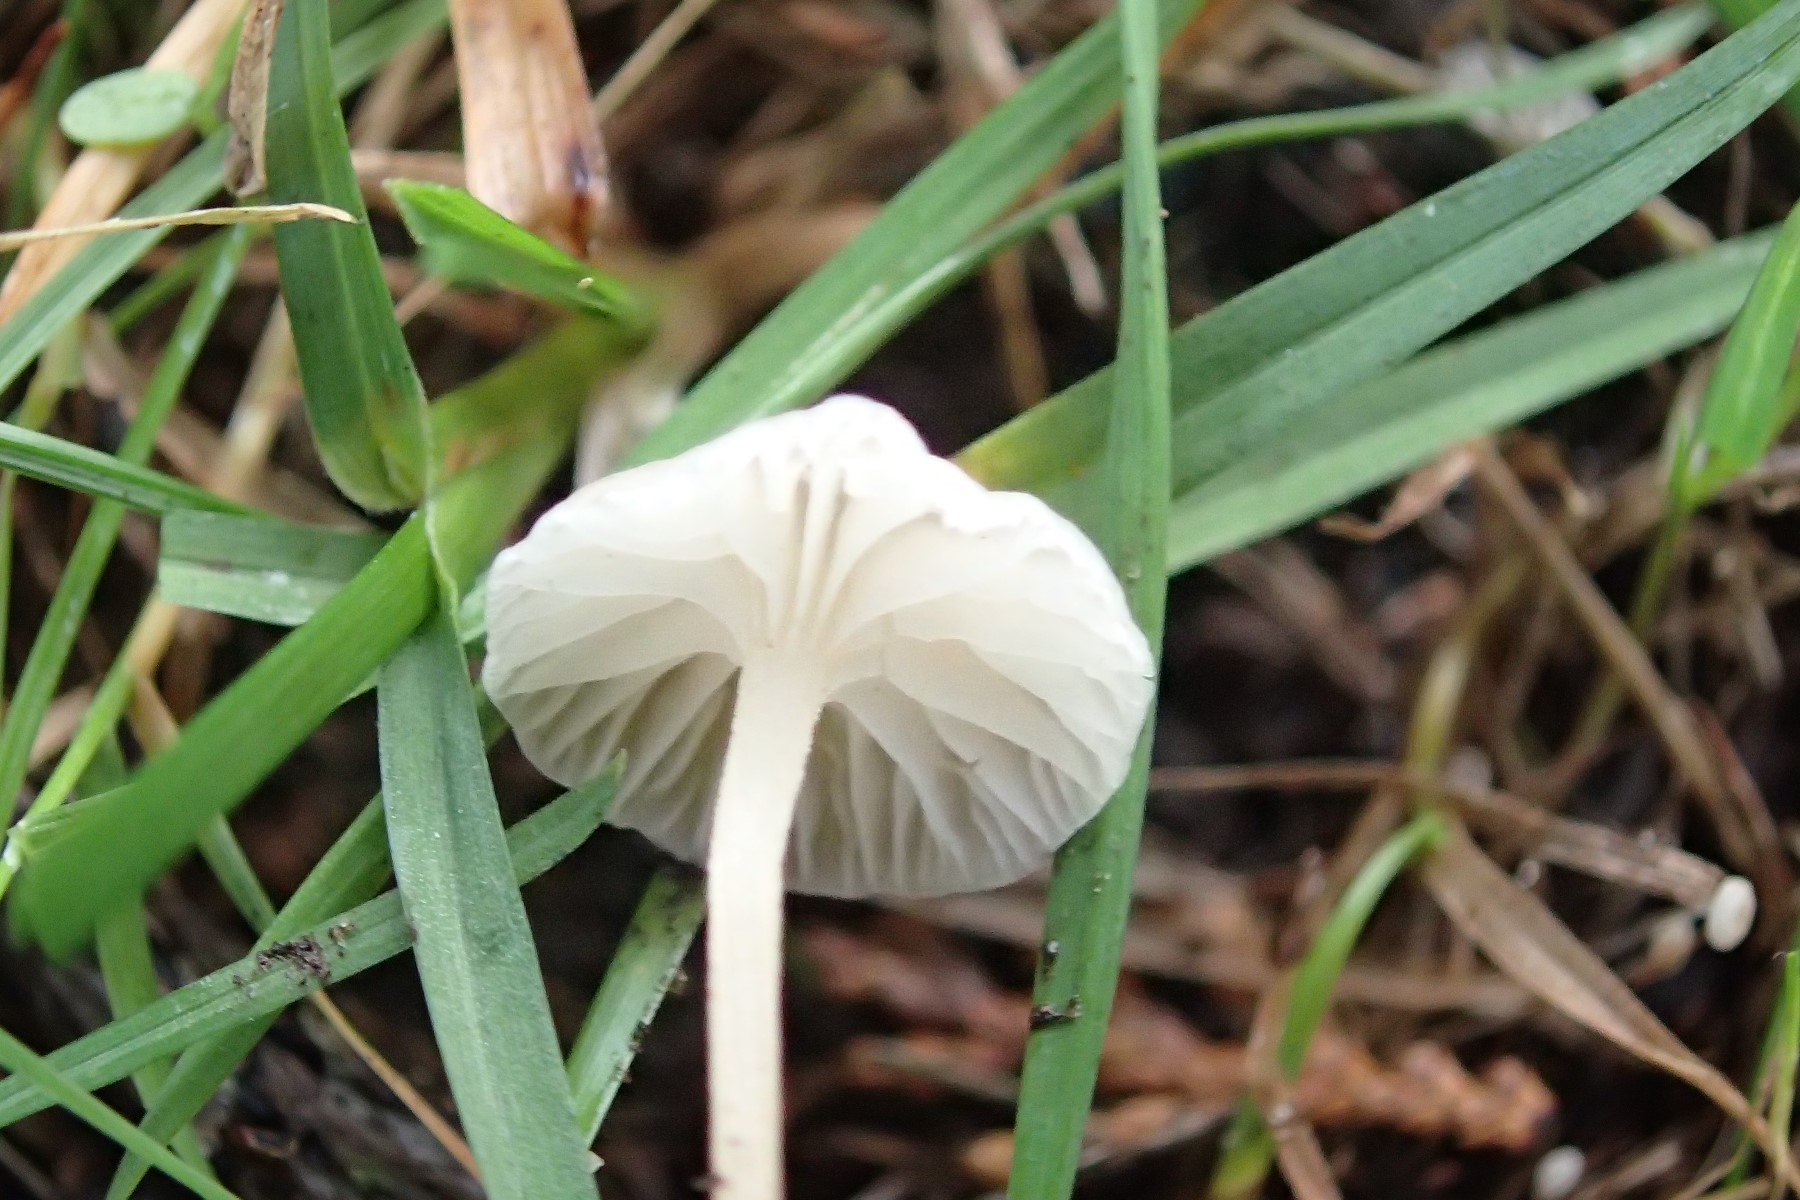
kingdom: Fungi
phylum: Basidiomycota
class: Agaricomycetes
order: Agaricales
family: Mycenaceae
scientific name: Mycenaceae
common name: huesvampfamilien
